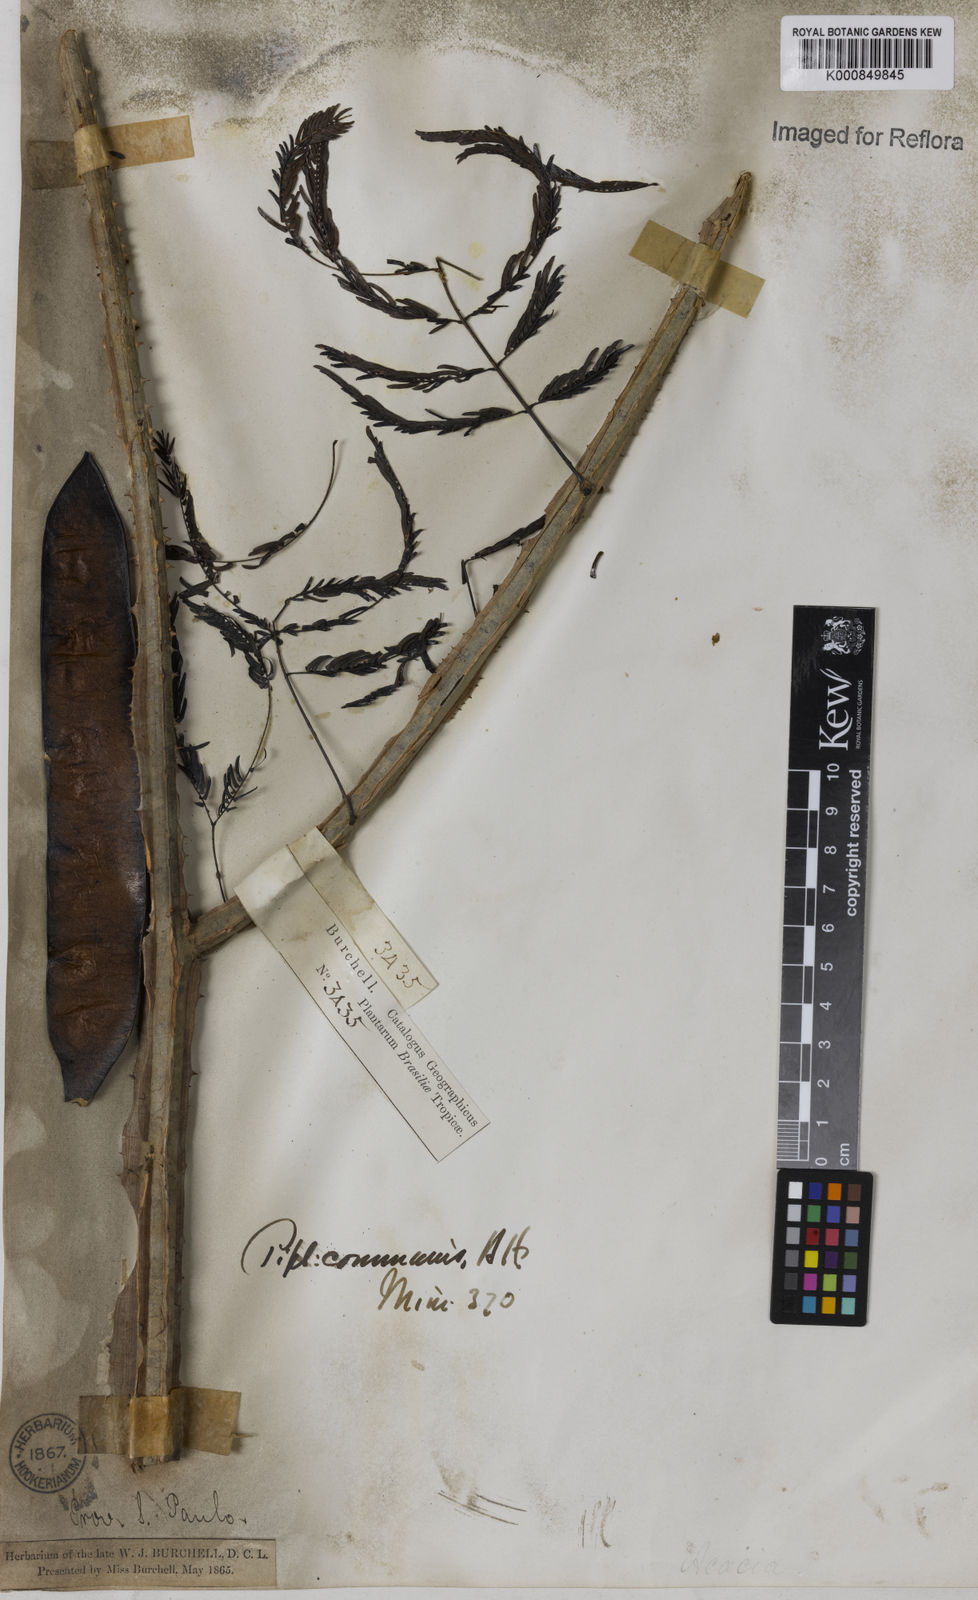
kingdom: Plantae
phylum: Tracheophyta
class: Magnoliopsida
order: Fabales
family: Fabaceae
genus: Piptadenia
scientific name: Piptadenia gonoacantha
